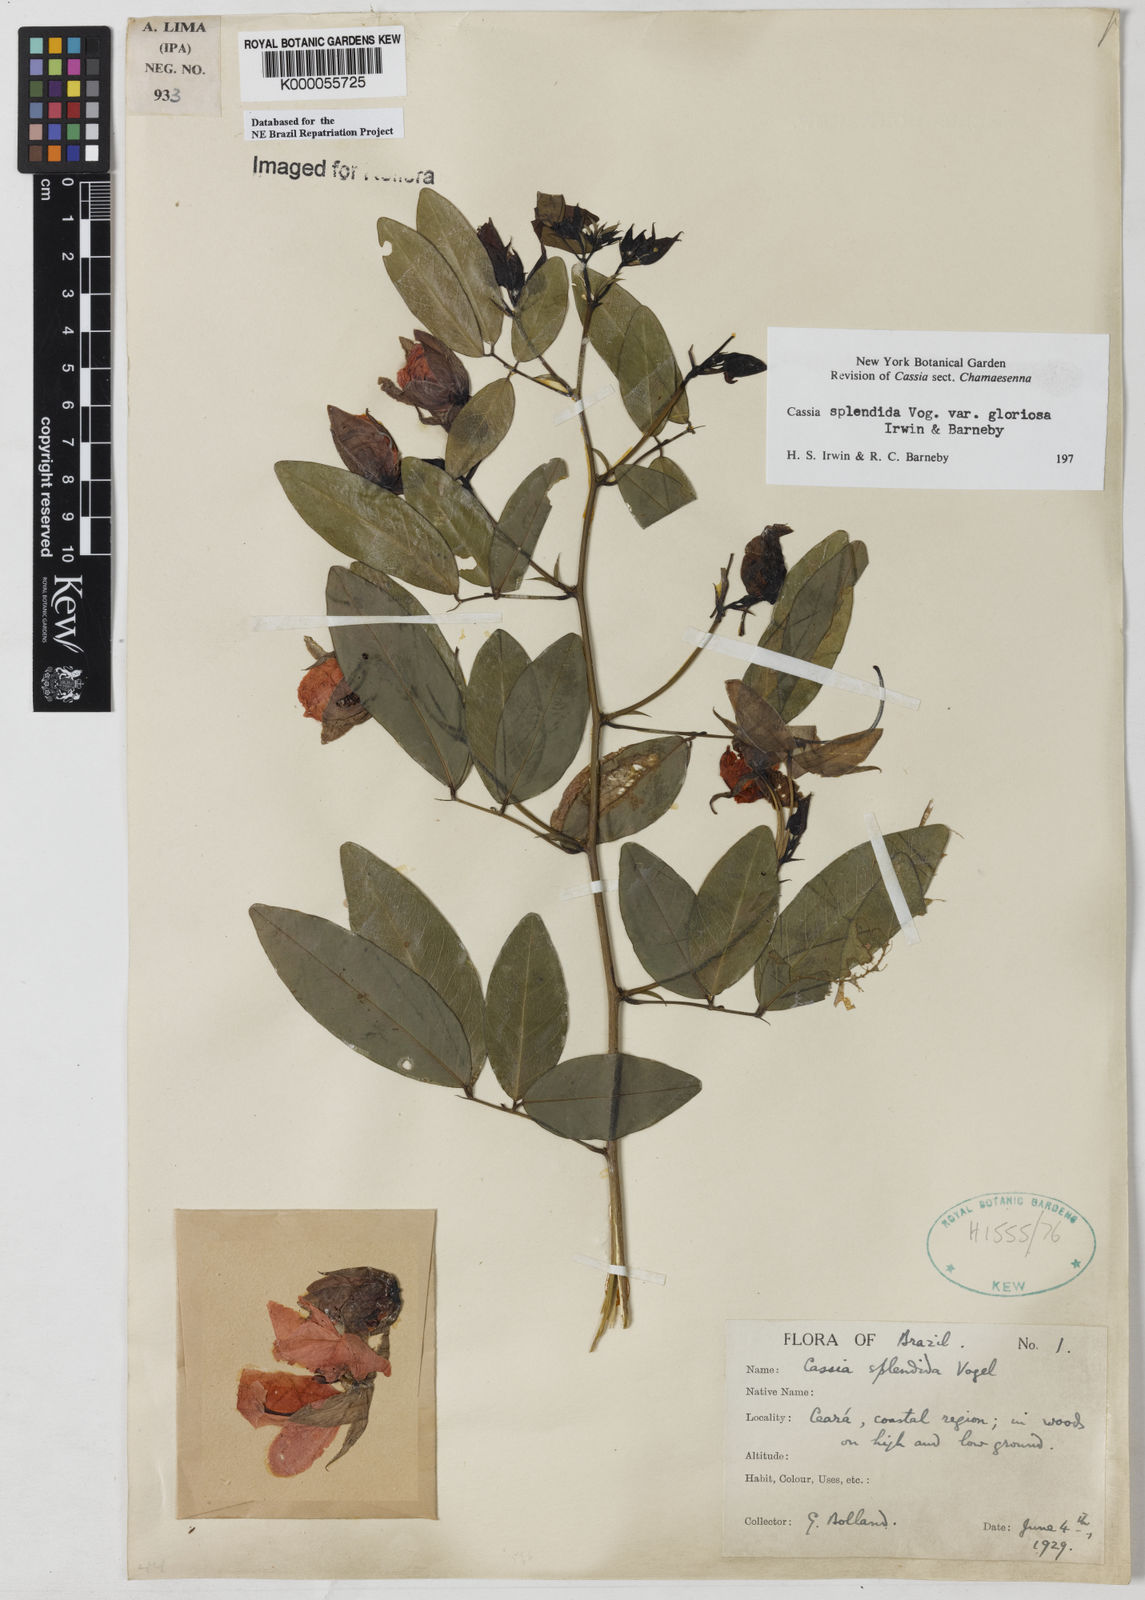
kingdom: Plantae
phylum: Tracheophyta
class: Magnoliopsida
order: Fabales
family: Fabaceae
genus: Senna
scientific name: Senna splendida
